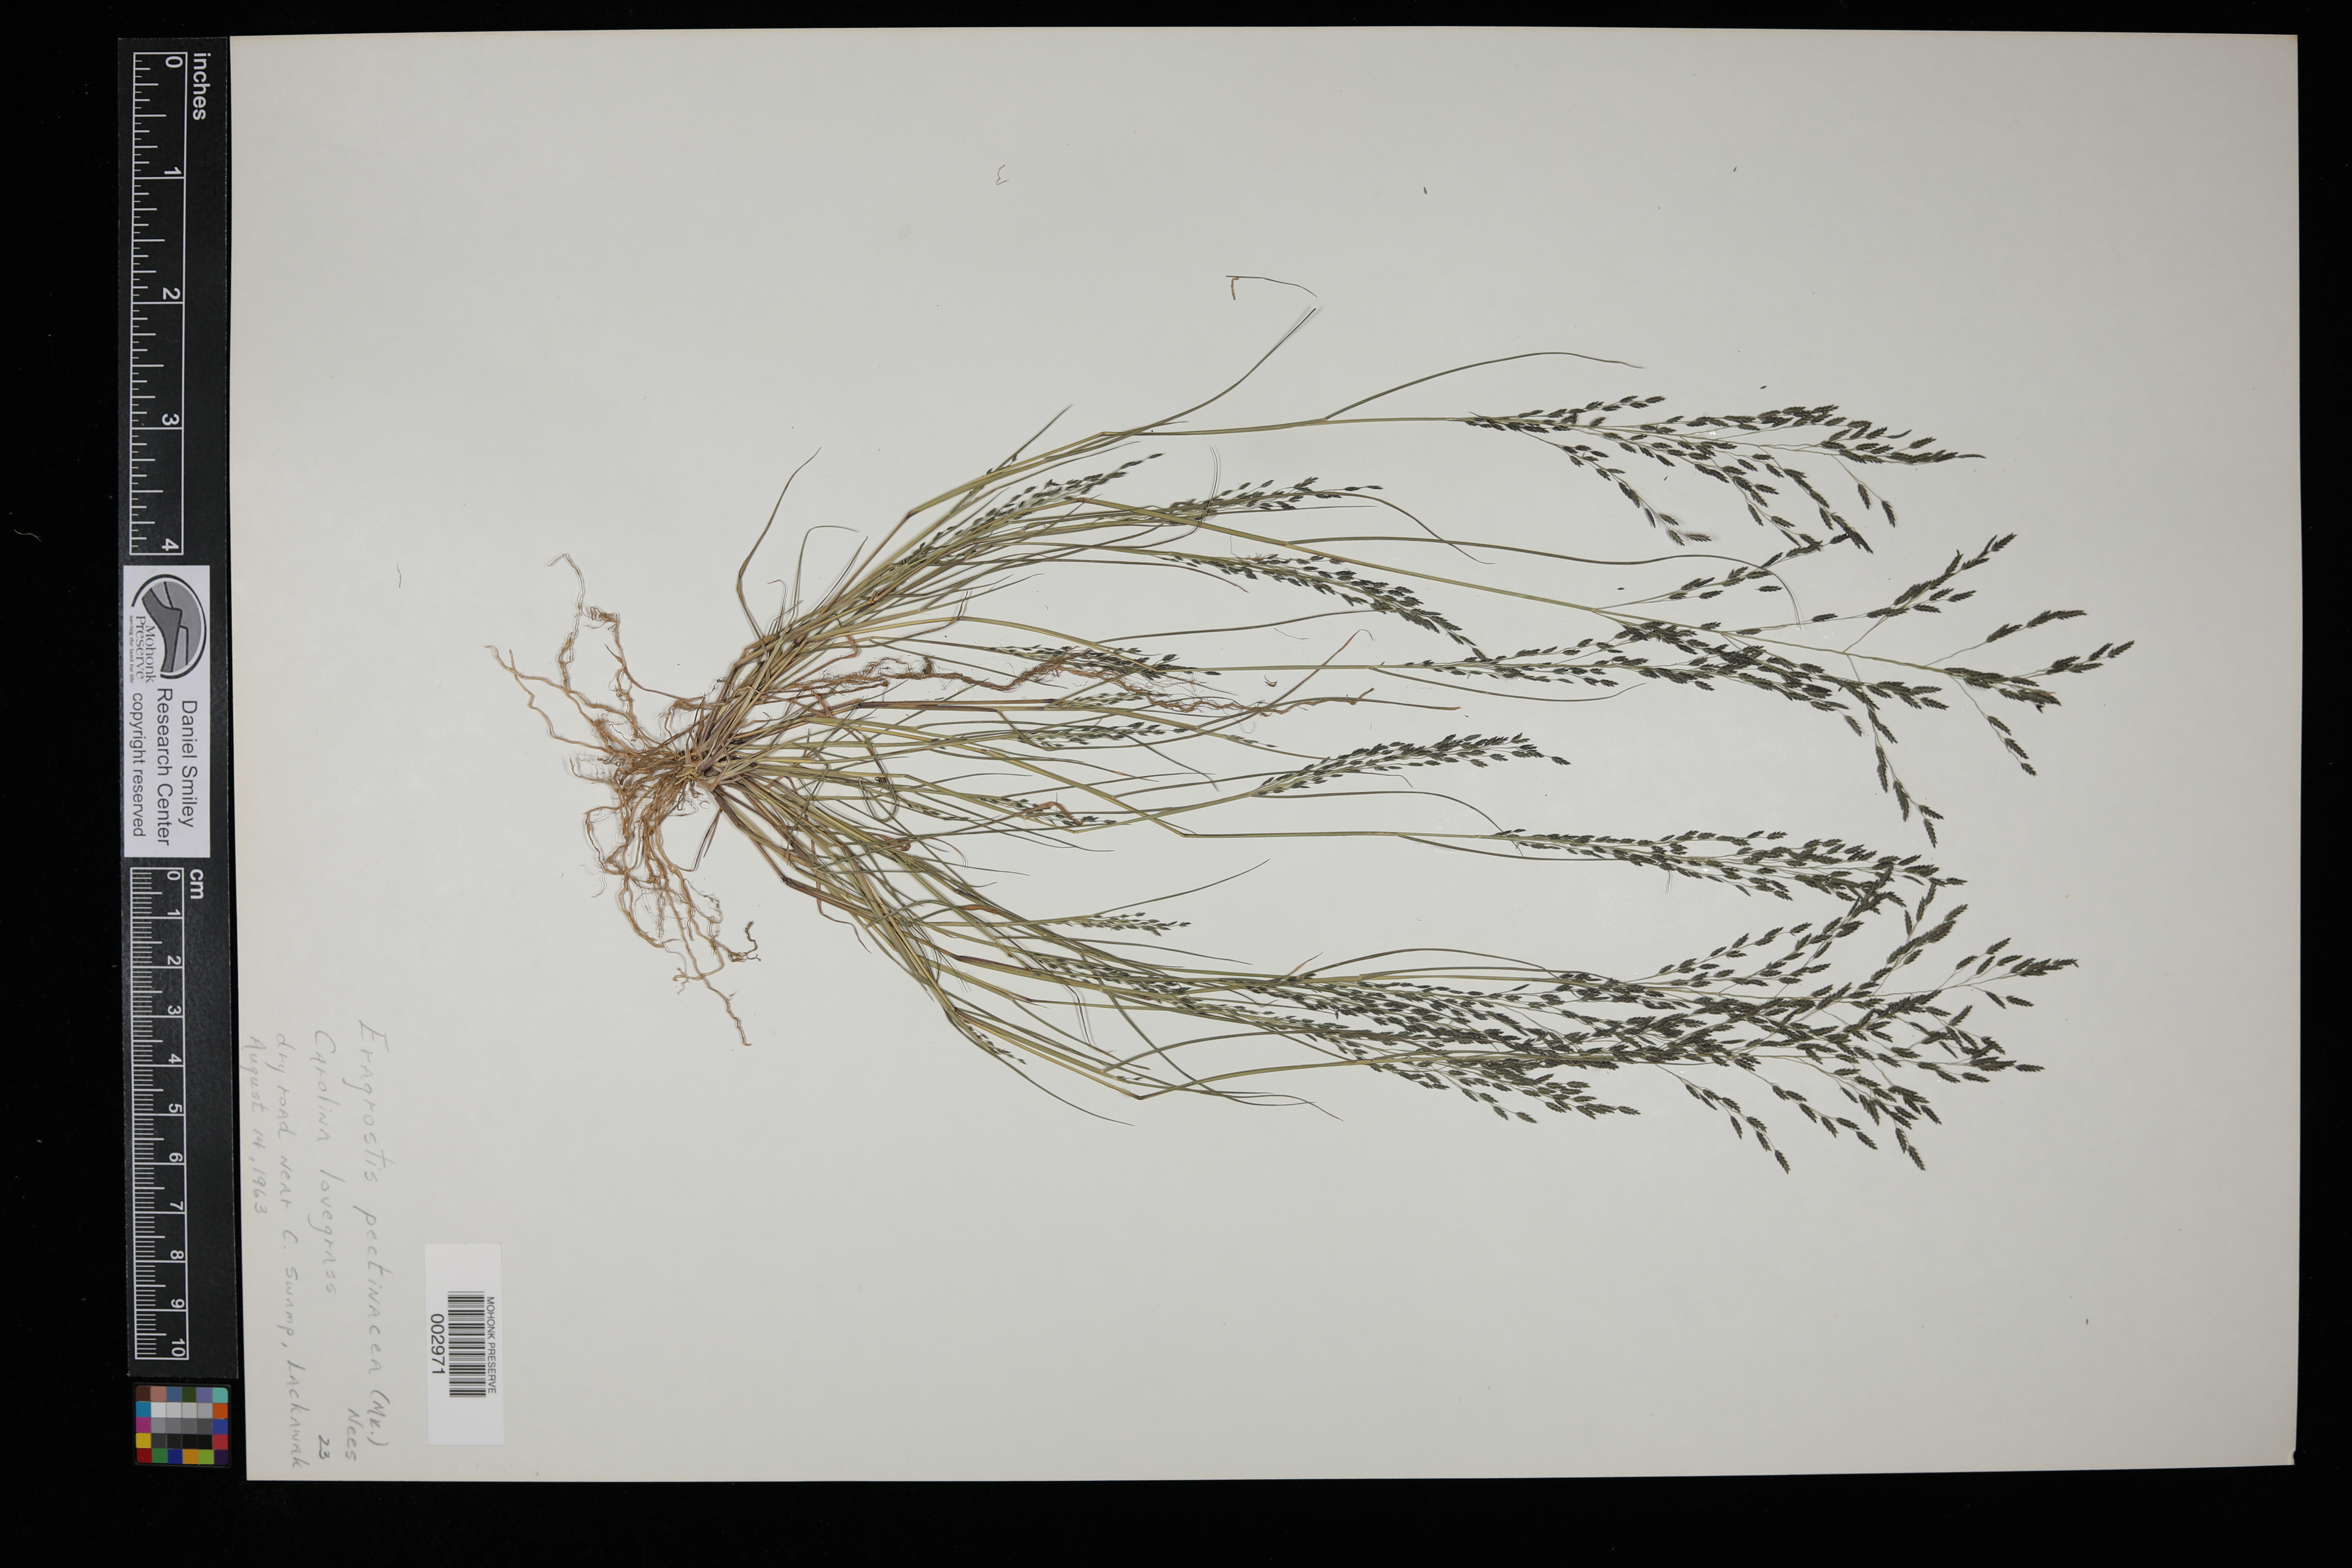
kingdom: Plantae
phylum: Tracheophyta
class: Liliopsida
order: Poales
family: Poaceae
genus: Eragrostis
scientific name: Eragrostis pectinacea
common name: Tufted lovegrass
